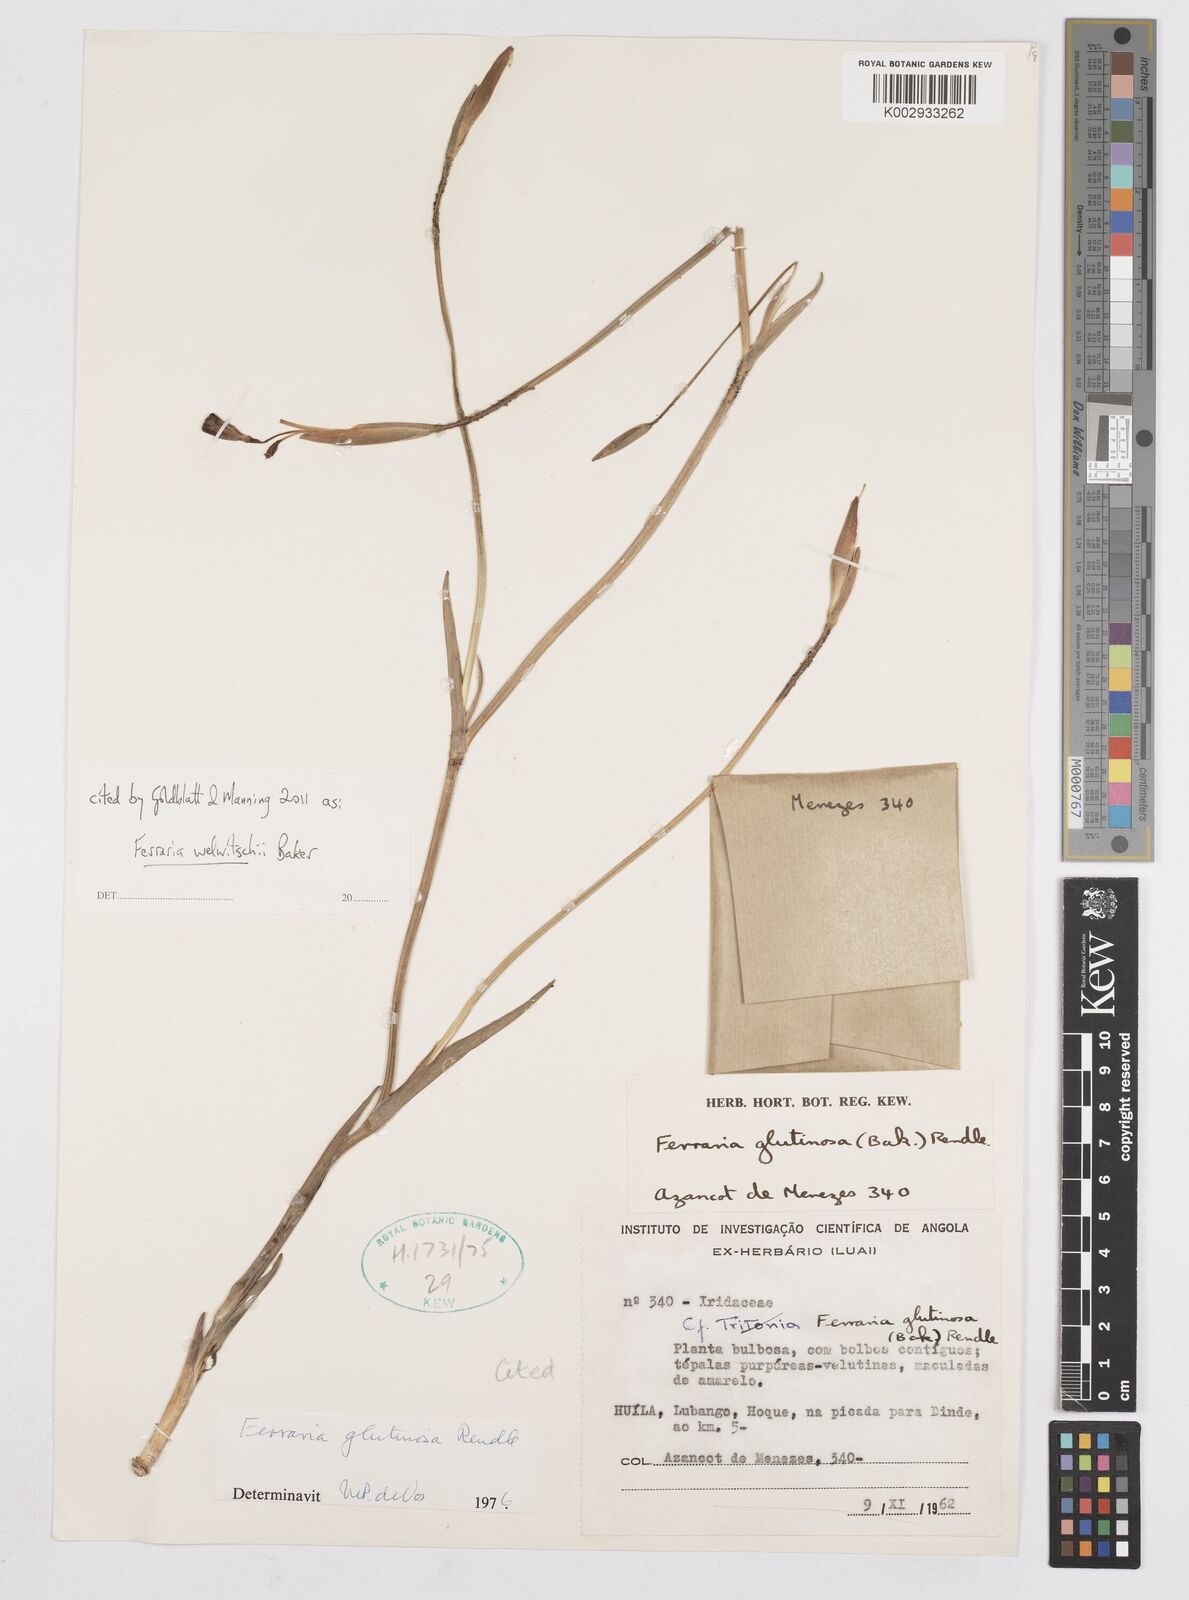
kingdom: Plantae
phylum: Tracheophyta
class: Liliopsida
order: Asparagales
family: Iridaceae
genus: Ferraria
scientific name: Ferraria welwitschii
